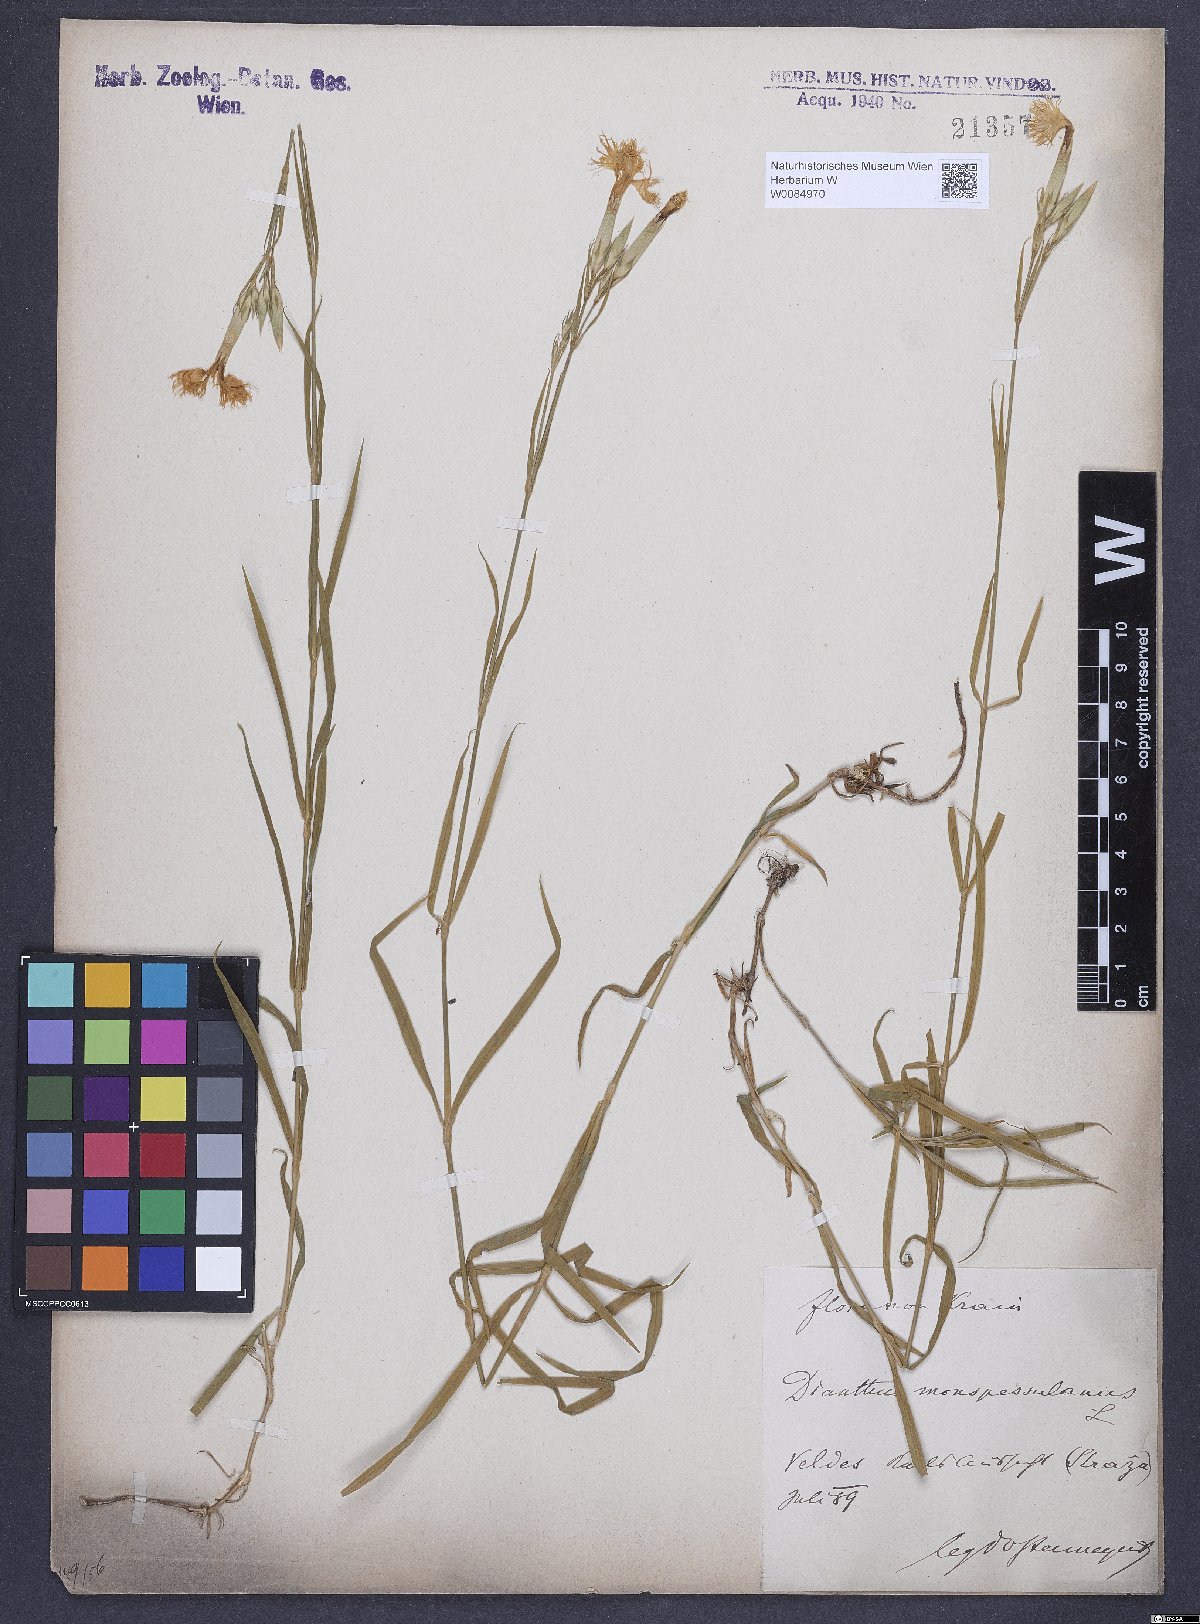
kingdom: Plantae
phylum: Tracheophyta
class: Magnoliopsida
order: Caryophyllales
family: Caryophyllaceae
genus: Dianthus
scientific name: Dianthus hyssopifolius
